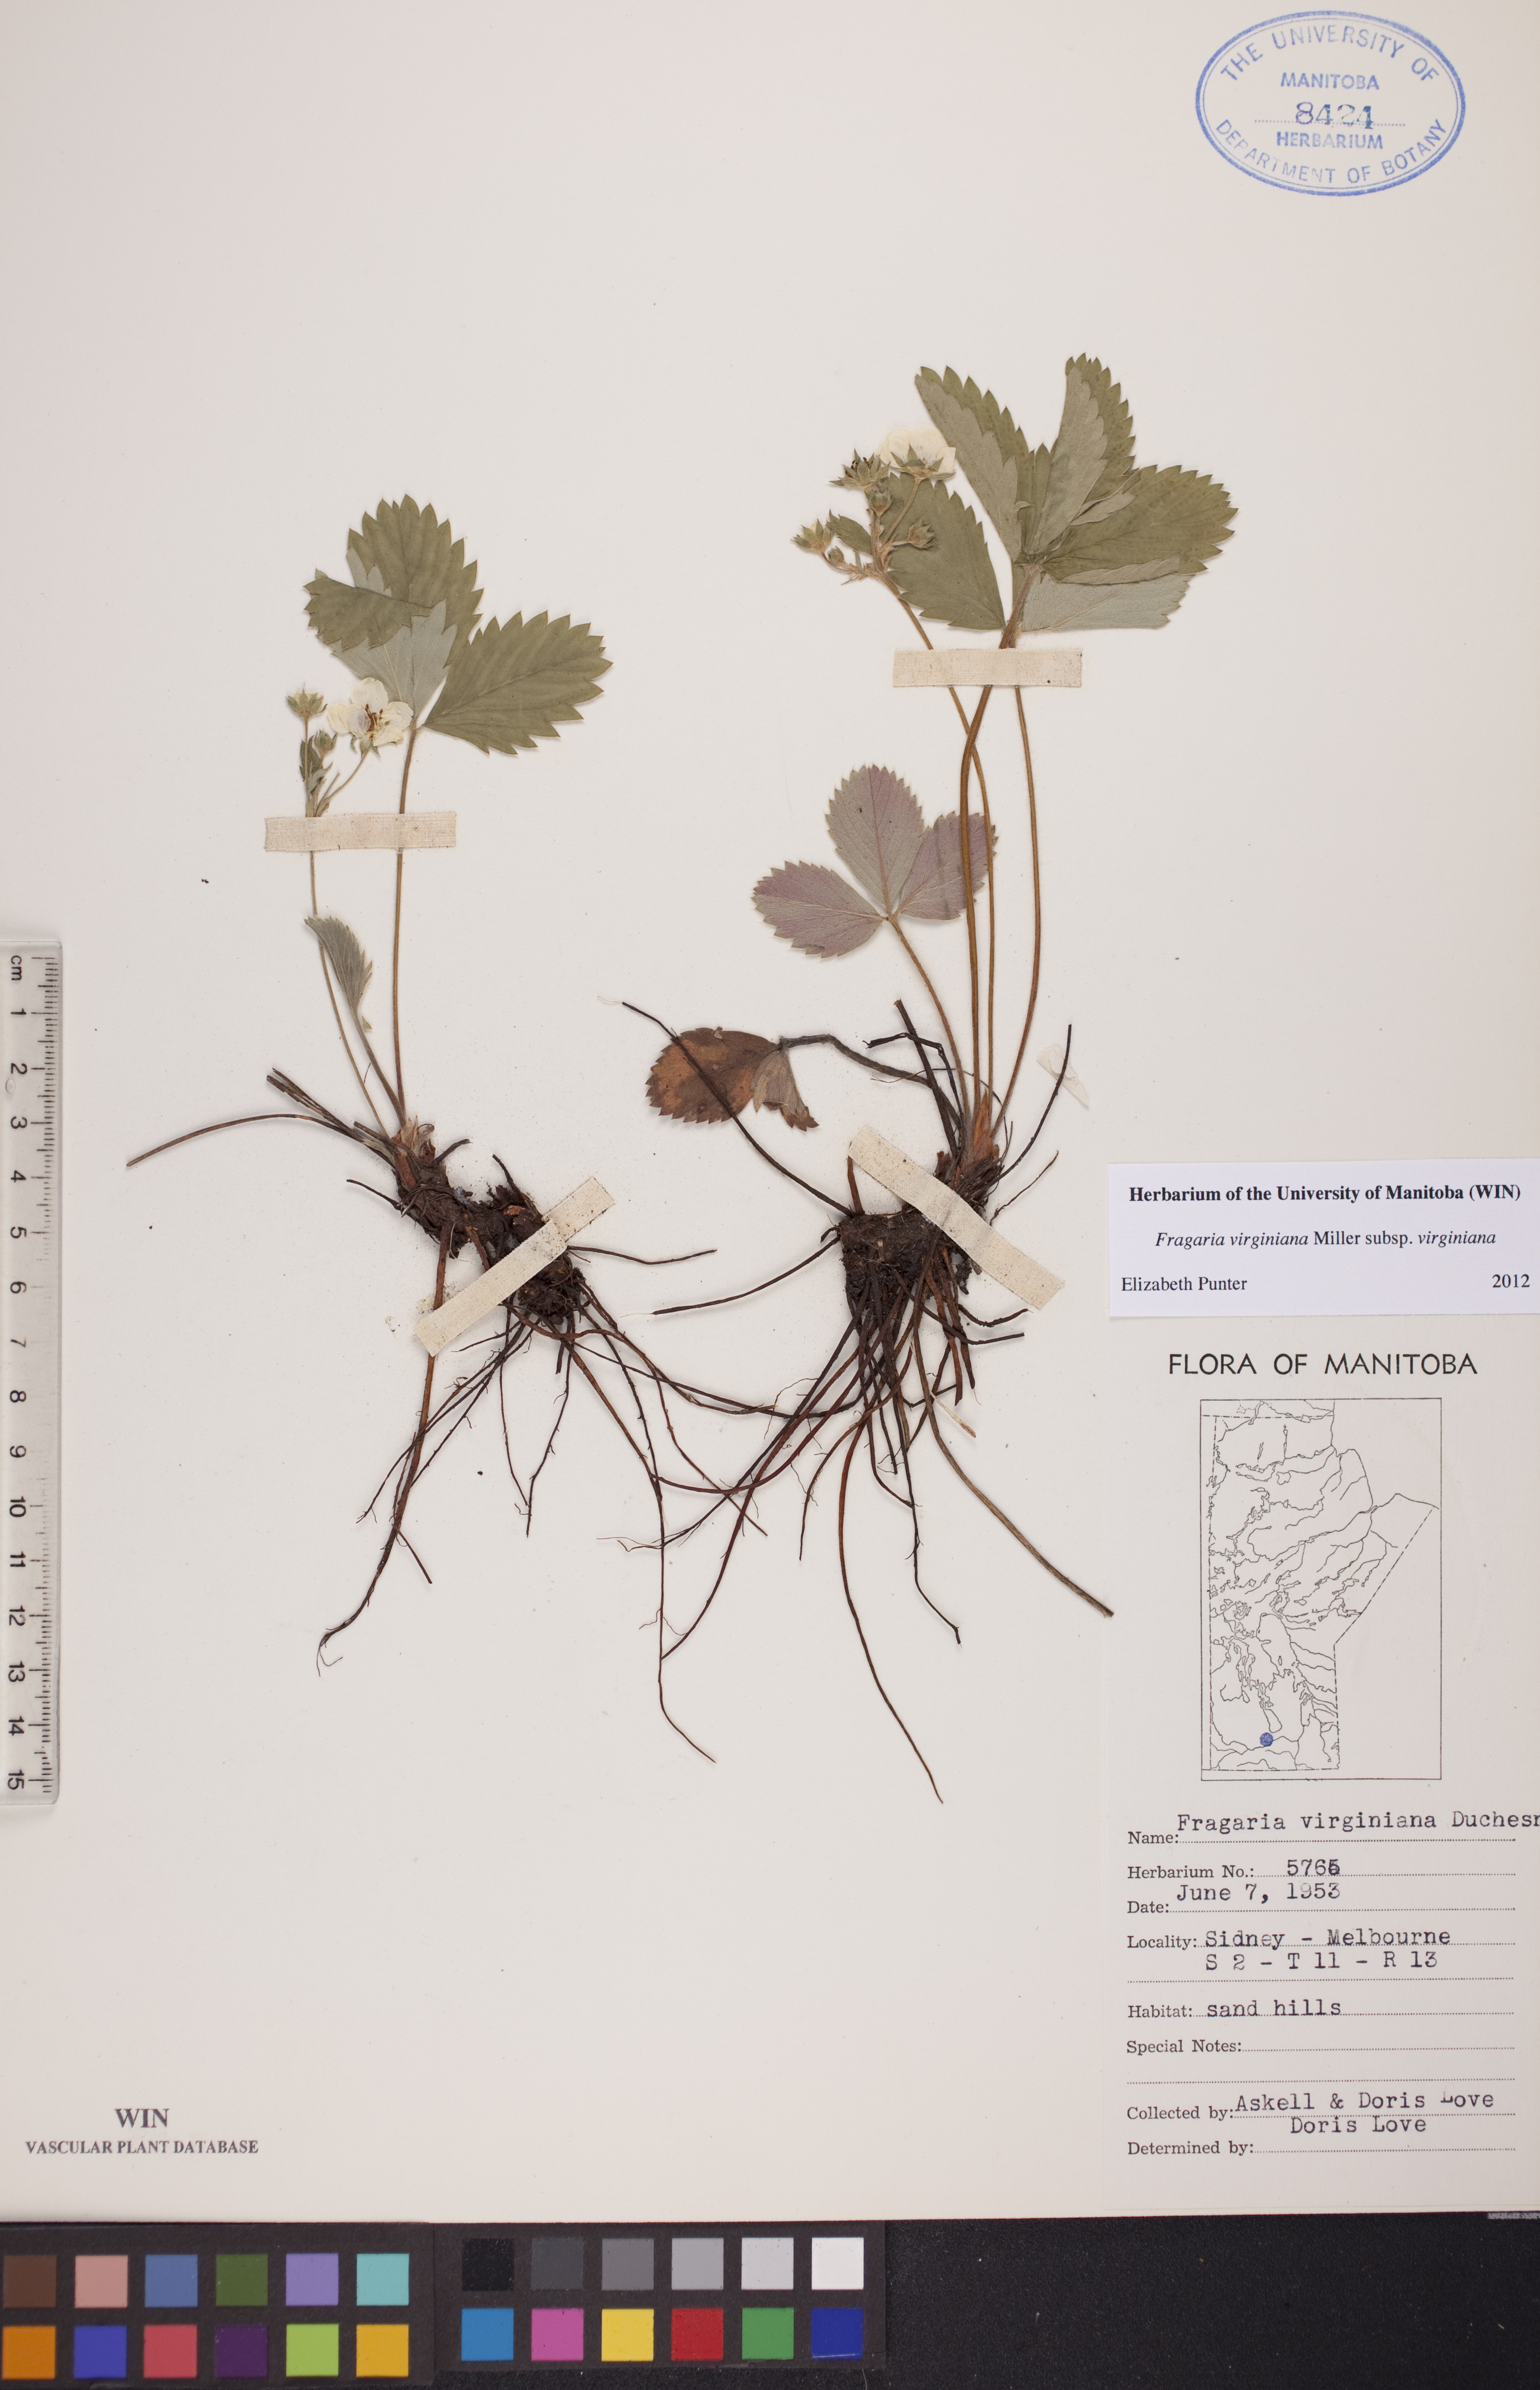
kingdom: Plantae
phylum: Tracheophyta
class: Magnoliopsida
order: Rosales
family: Rosaceae
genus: Fragaria
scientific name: Fragaria virginiana
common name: Thickleaved wild strawberry
